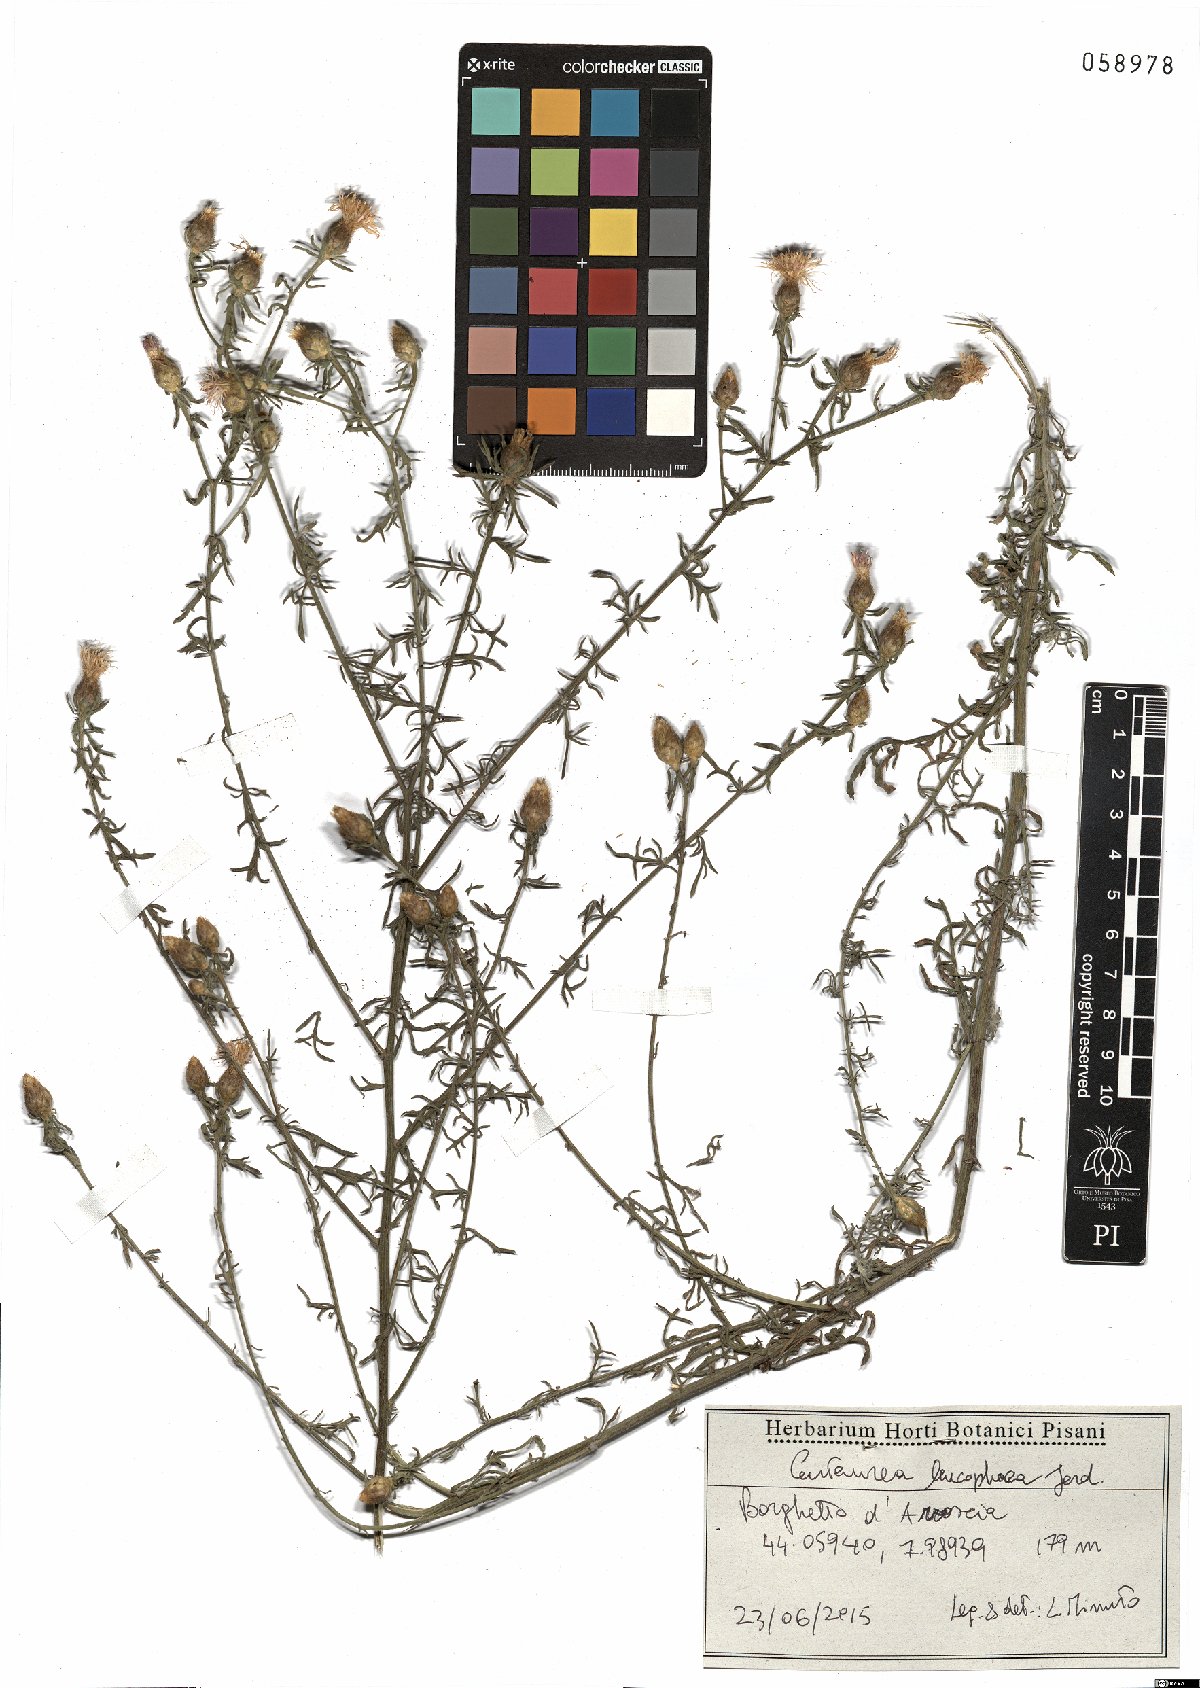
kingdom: Plantae
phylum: Tracheophyta
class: Magnoliopsida
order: Asterales
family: Asteraceae
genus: Centaurea
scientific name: Centaurea leucophaea
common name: Whitish-leaved knapweed
